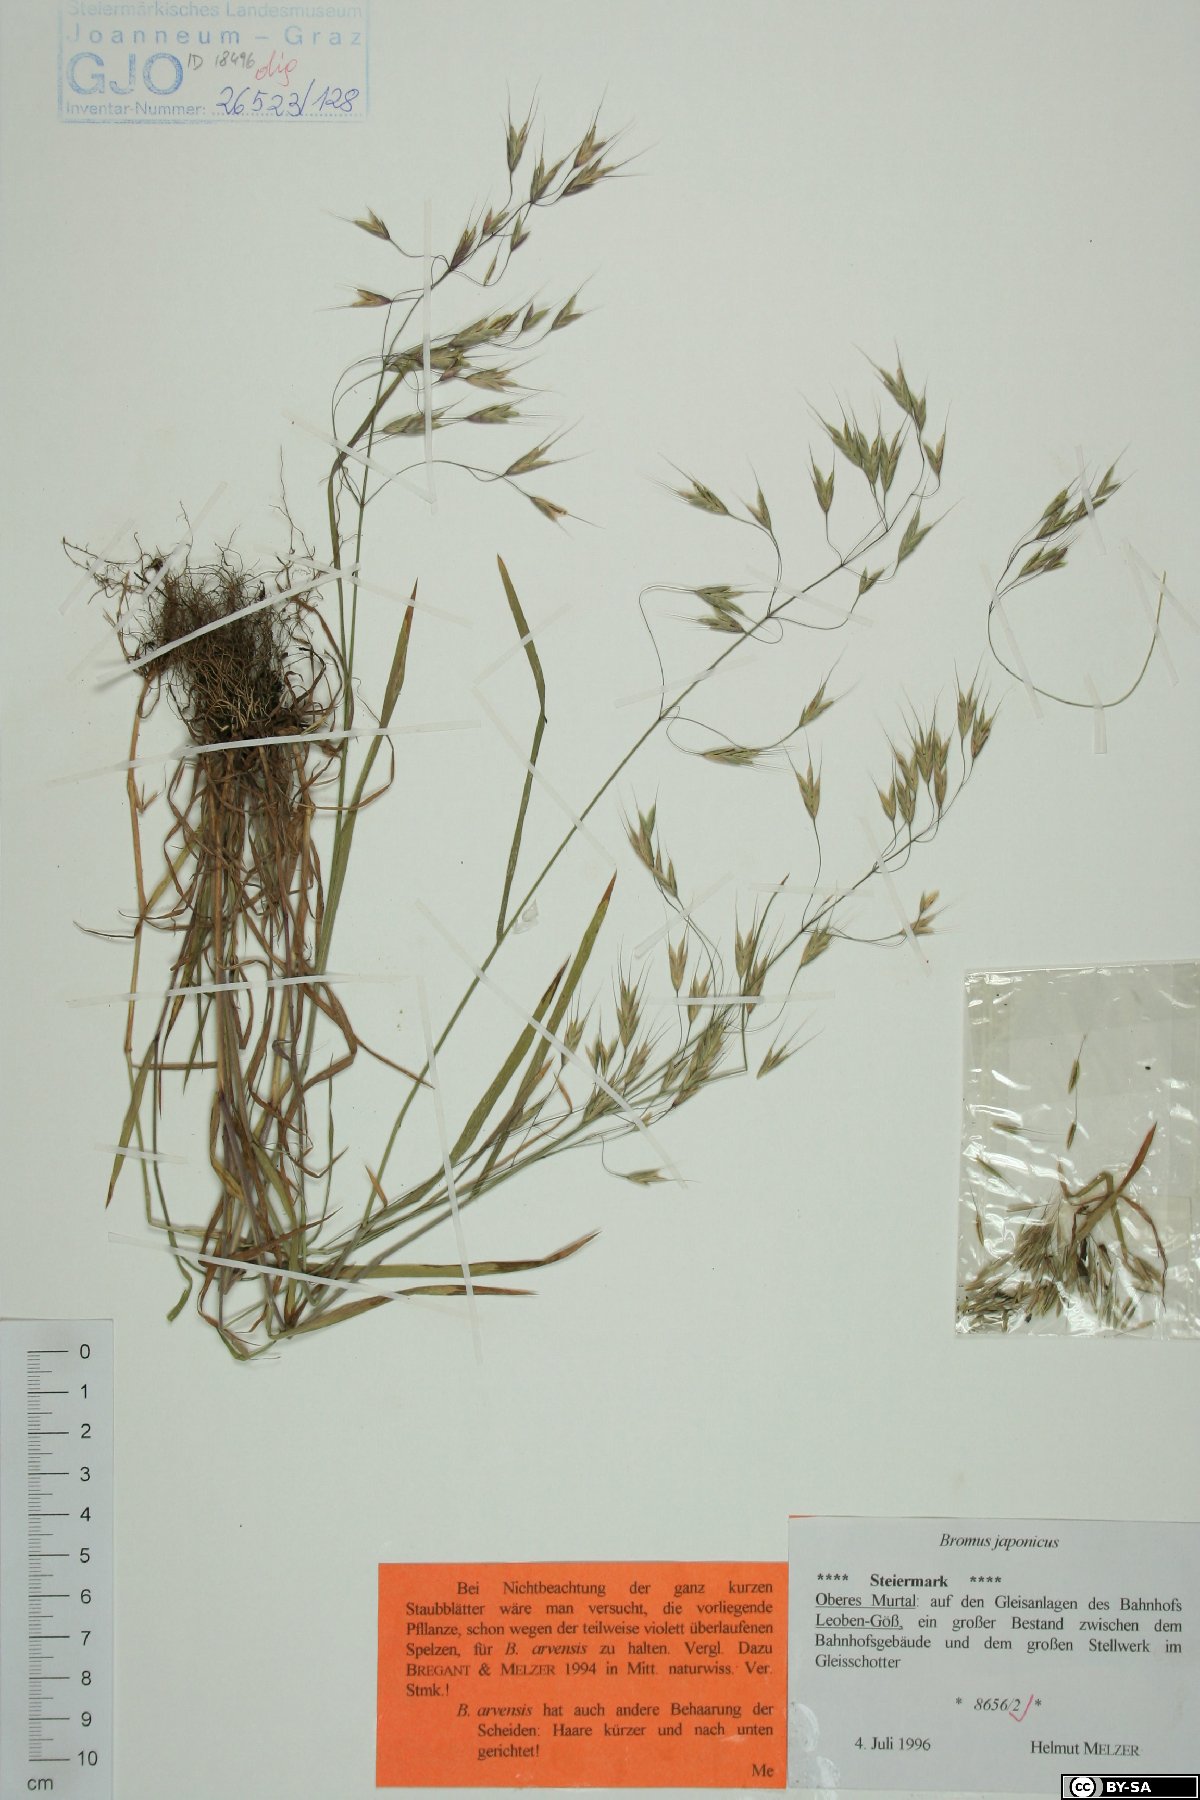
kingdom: Plantae
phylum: Tracheophyta
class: Liliopsida
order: Poales
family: Poaceae
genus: Bromus
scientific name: Bromus japonicus
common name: Japanese brome
